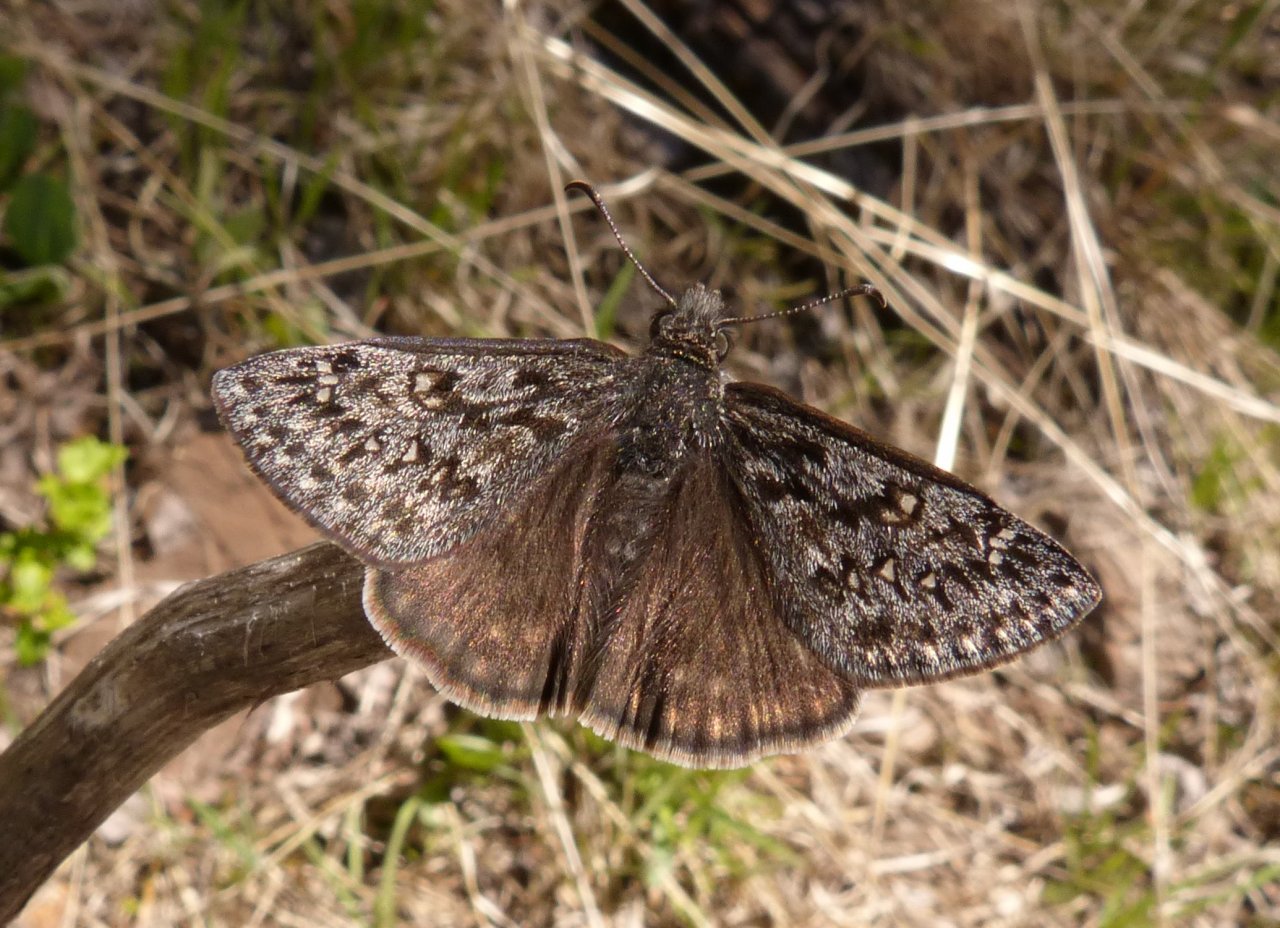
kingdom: Animalia
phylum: Arthropoda
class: Insecta
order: Lepidoptera
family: Hesperiidae
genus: Erynnis
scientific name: Erynnis telemachus
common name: Rocky Mountain Duskywing
